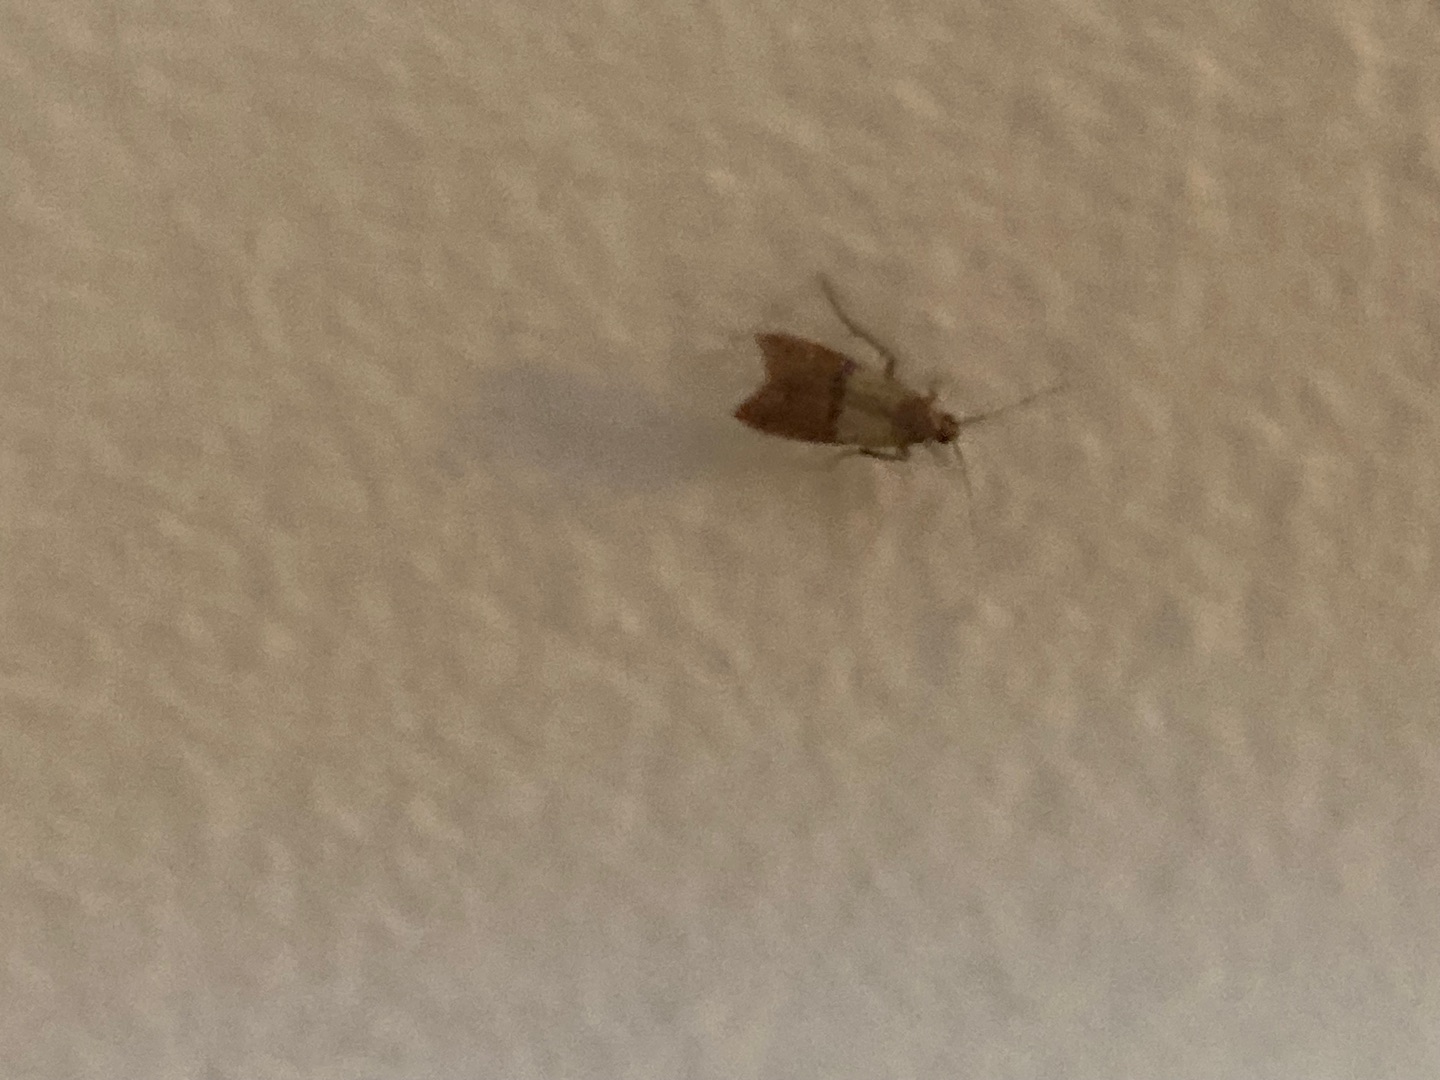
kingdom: Animalia
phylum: Arthropoda
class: Insecta
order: Lepidoptera
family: Pyralidae
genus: Plodia
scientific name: Plodia interpunctella
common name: Tofarvet frømøl
